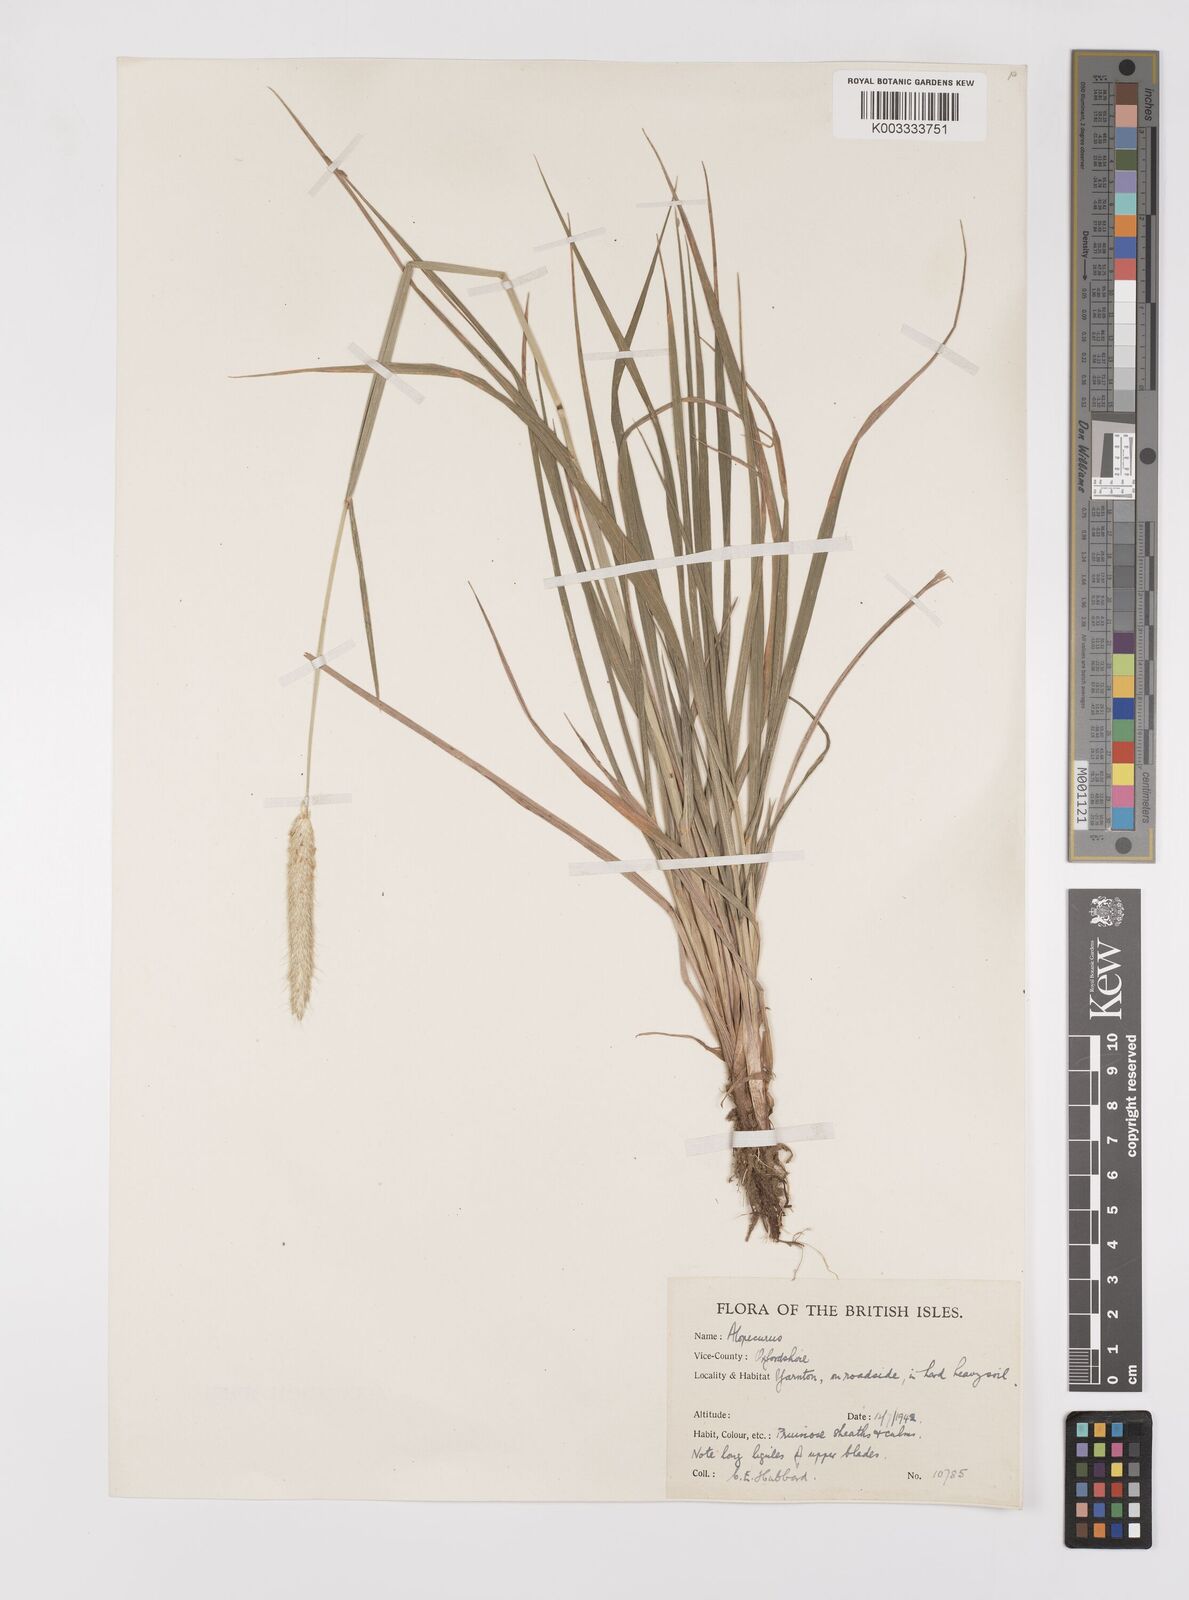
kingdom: Plantae
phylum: Tracheophyta
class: Liliopsida
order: Poales
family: Poaceae
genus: Alopecurus
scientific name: Alopecurus pratensis
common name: Meadow foxtail
